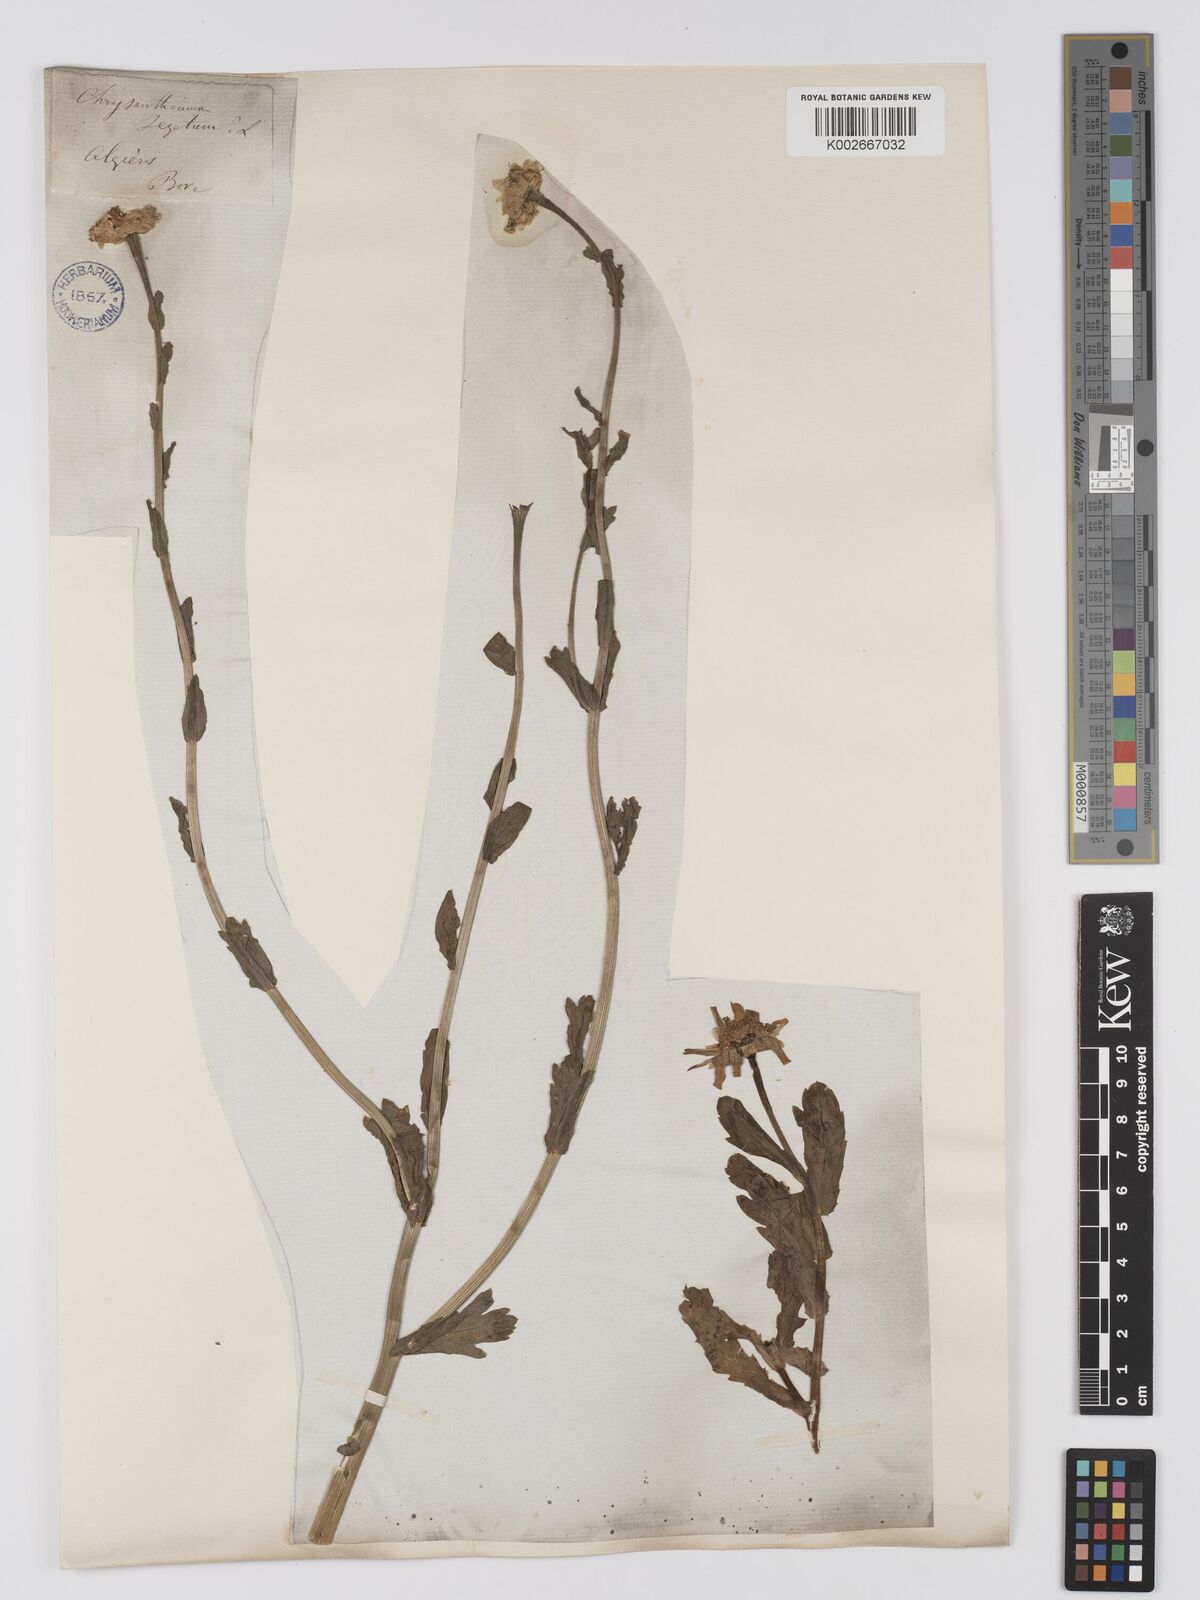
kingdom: Plantae
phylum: Tracheophyta
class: Magnoliopsida
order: Asterales
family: Asteraceae
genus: Glebionis
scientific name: Glebionis segetum
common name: Corndaisy
